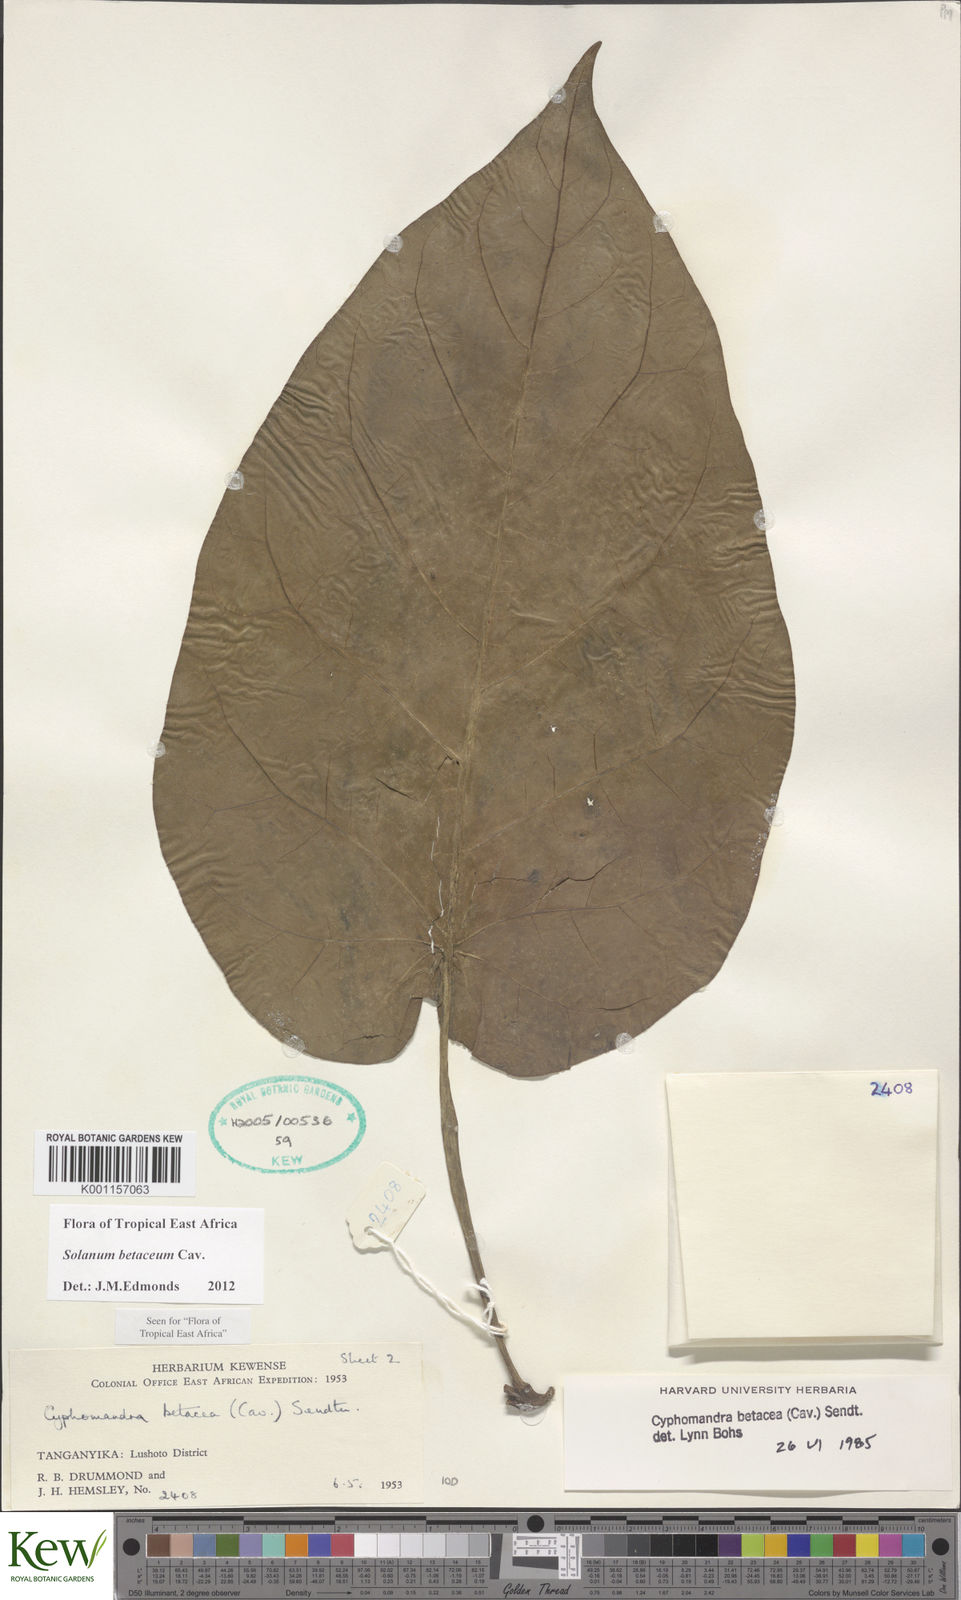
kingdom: Plantae
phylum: Tracheophyta
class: Magnoliopsida
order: Solanales
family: Solanaceae
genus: Solanum
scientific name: Solanum betaceum
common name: Tamarillo
